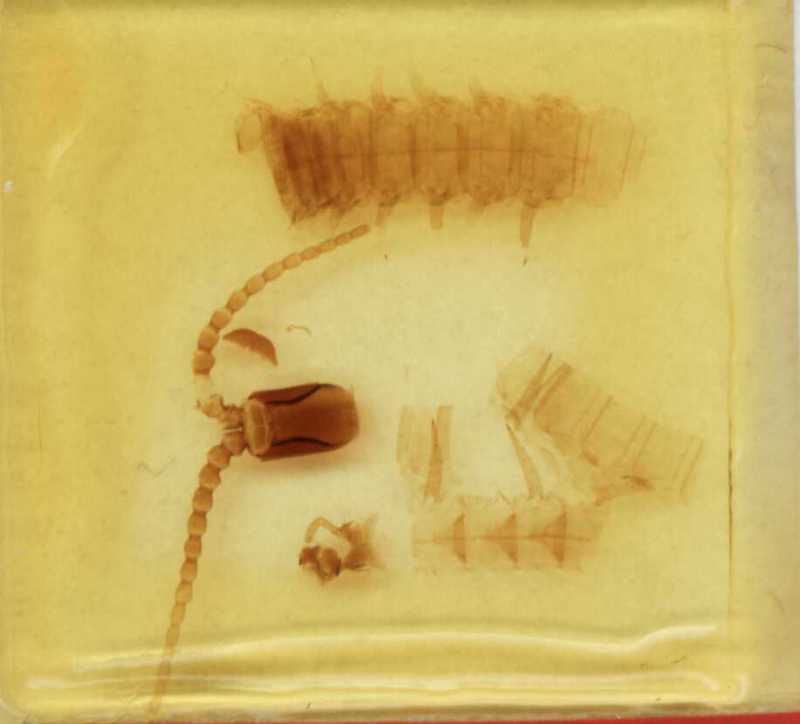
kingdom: Animalia
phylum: Arthropoda
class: Chilopoda
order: Geophilomorpha
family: Mecistocephalidae
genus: Mecistocephalus
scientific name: Mecistocephalus rhombifer
